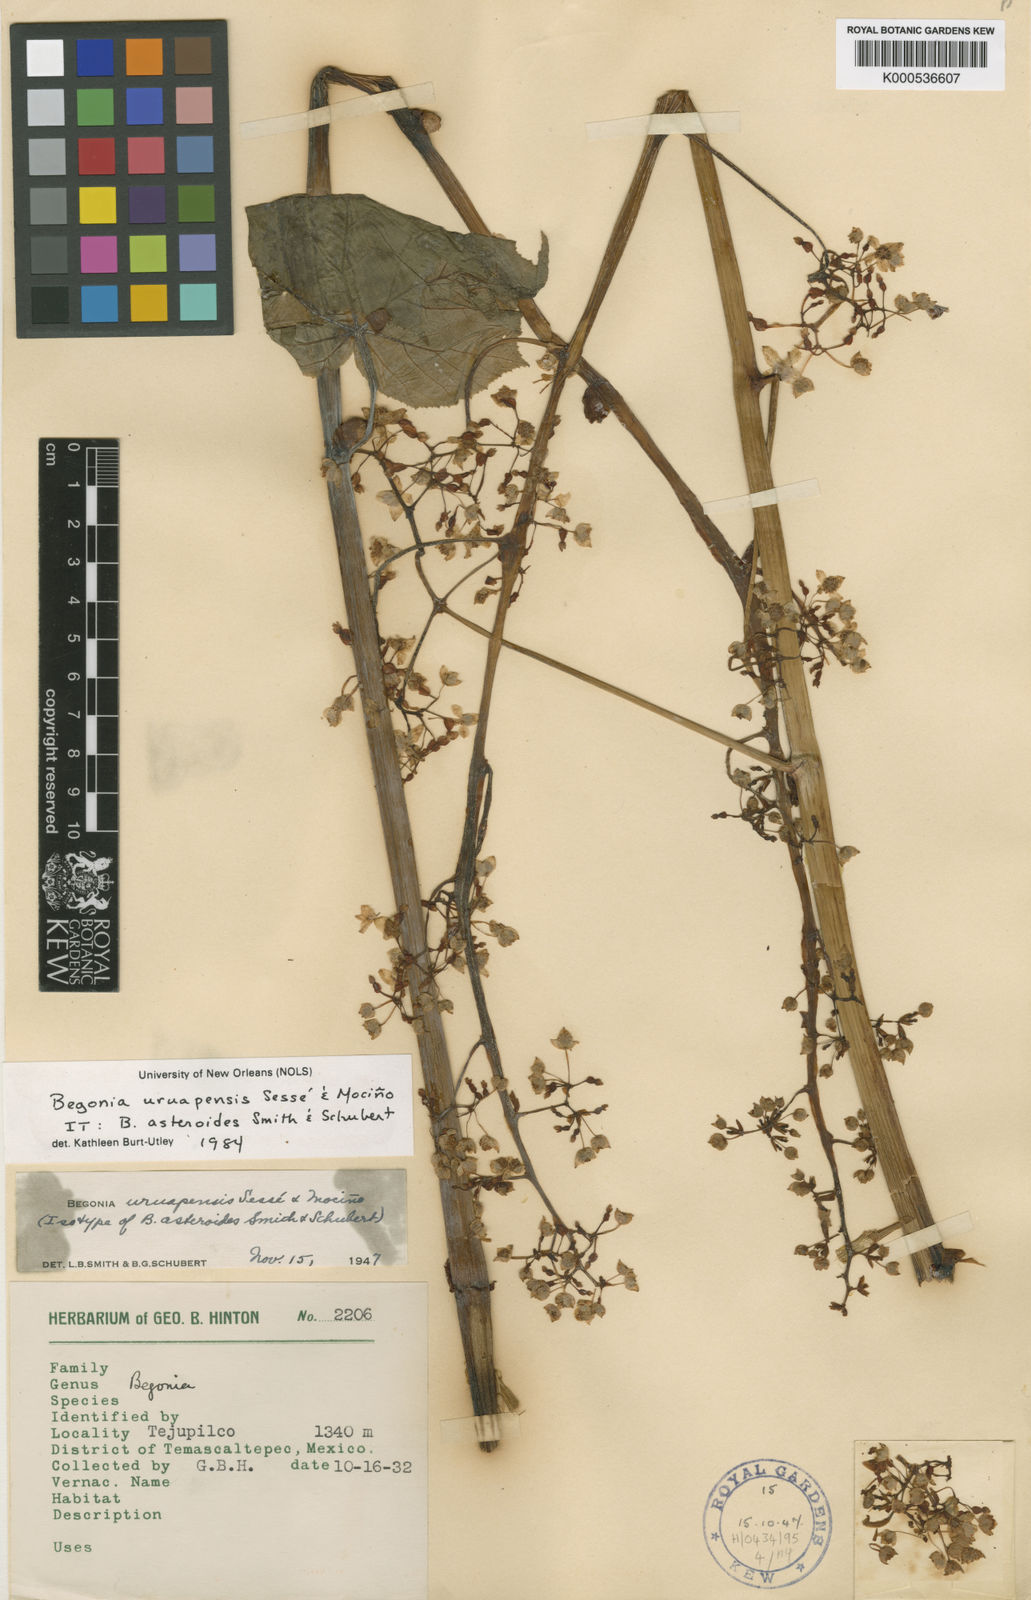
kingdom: Plantae
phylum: Tracheophyta
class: Magnoliopsida
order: Cucurbitales
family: Begoniaceae
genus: Begonia
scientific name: Begonia
